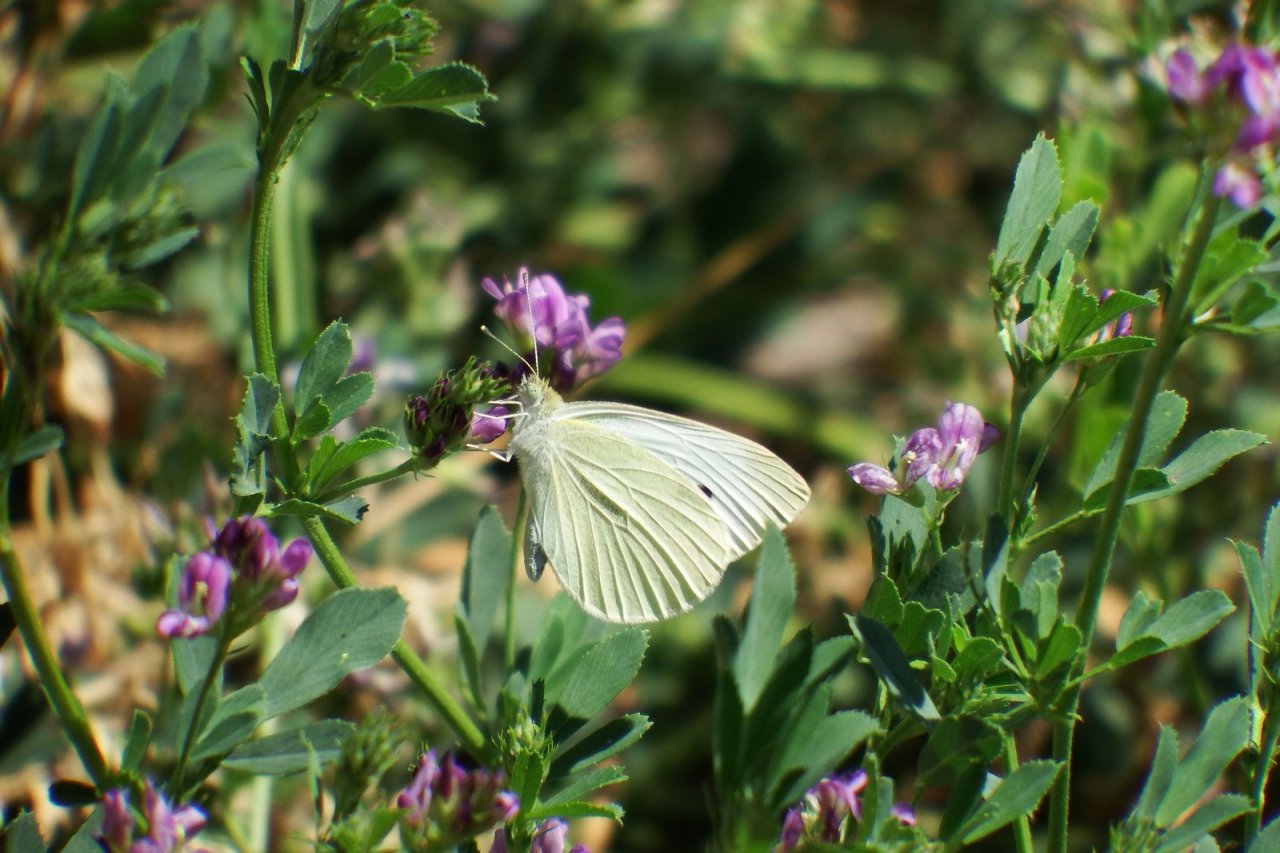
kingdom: Animalia
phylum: Arthropoda
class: Insecta
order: Lepidoptera
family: Pieridae
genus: Pieris
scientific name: Pieris rapae
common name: Cabbage White
